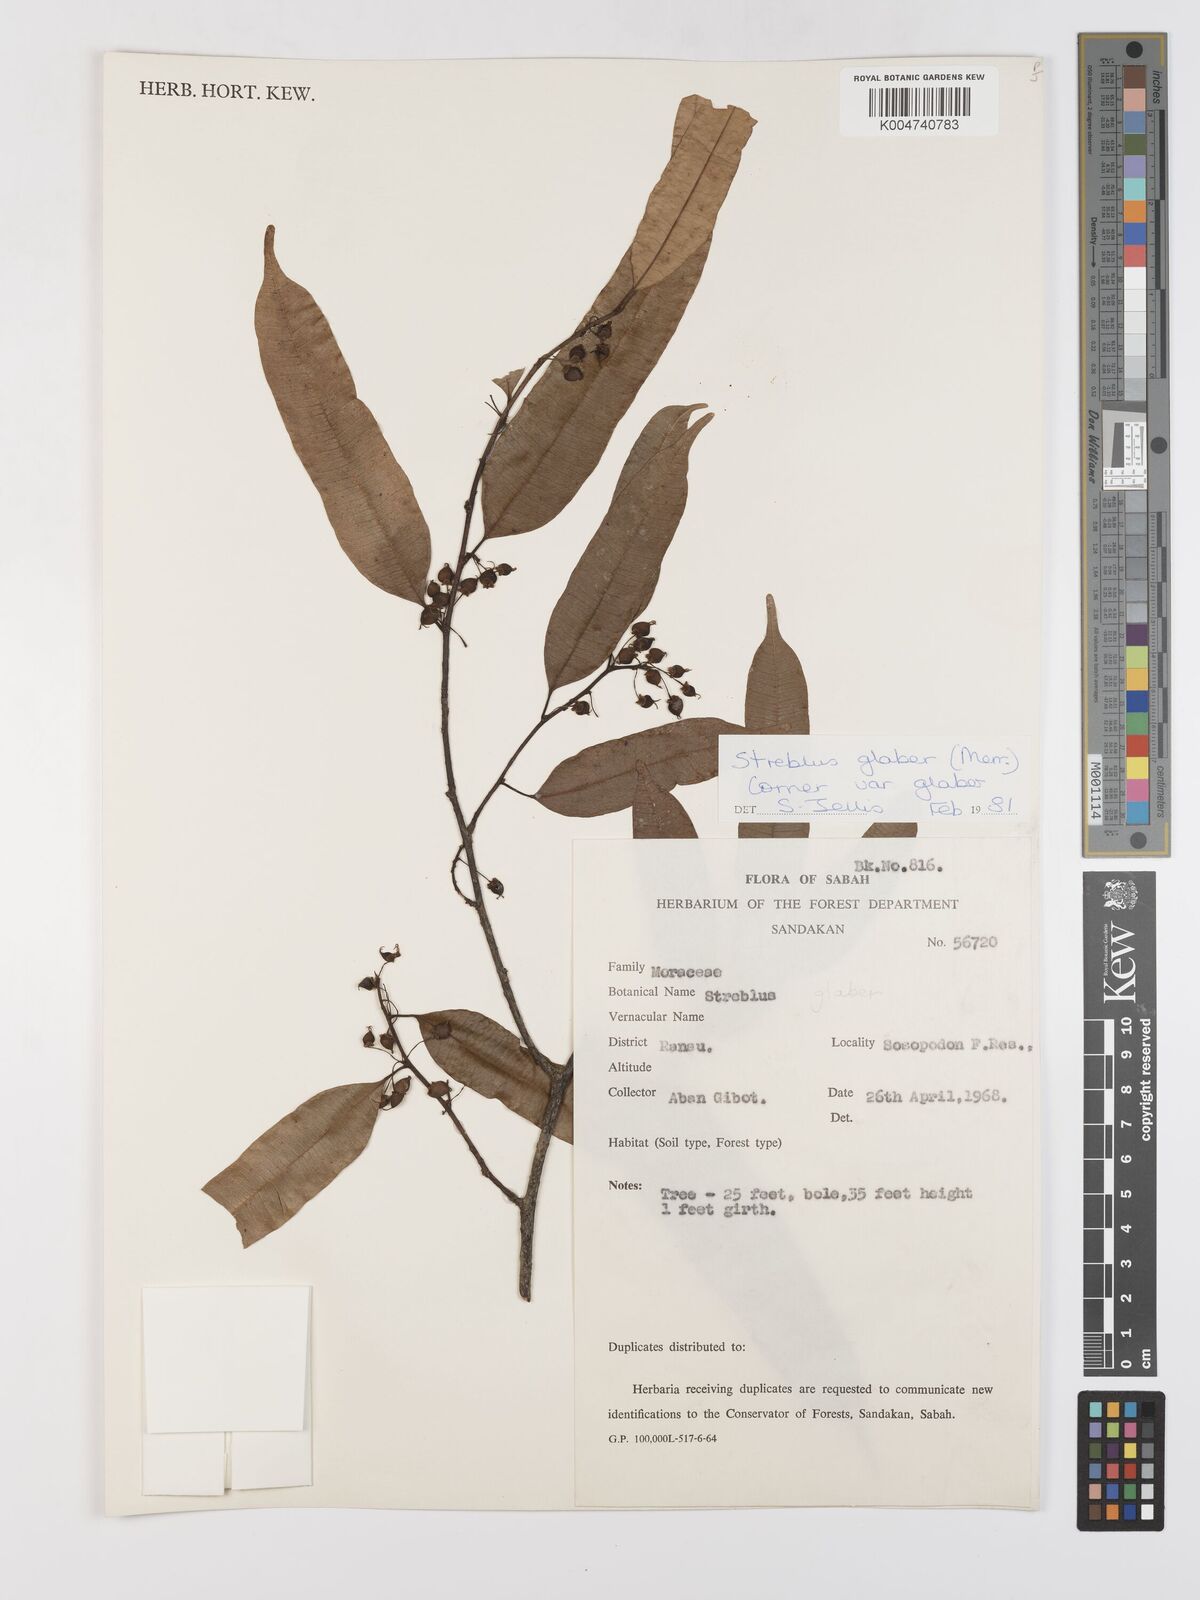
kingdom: Plantae
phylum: Tracheophyta
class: Magnoliopsida
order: Rosales
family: Moraceae
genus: Paratrophis
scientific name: Paratrophis glabra
